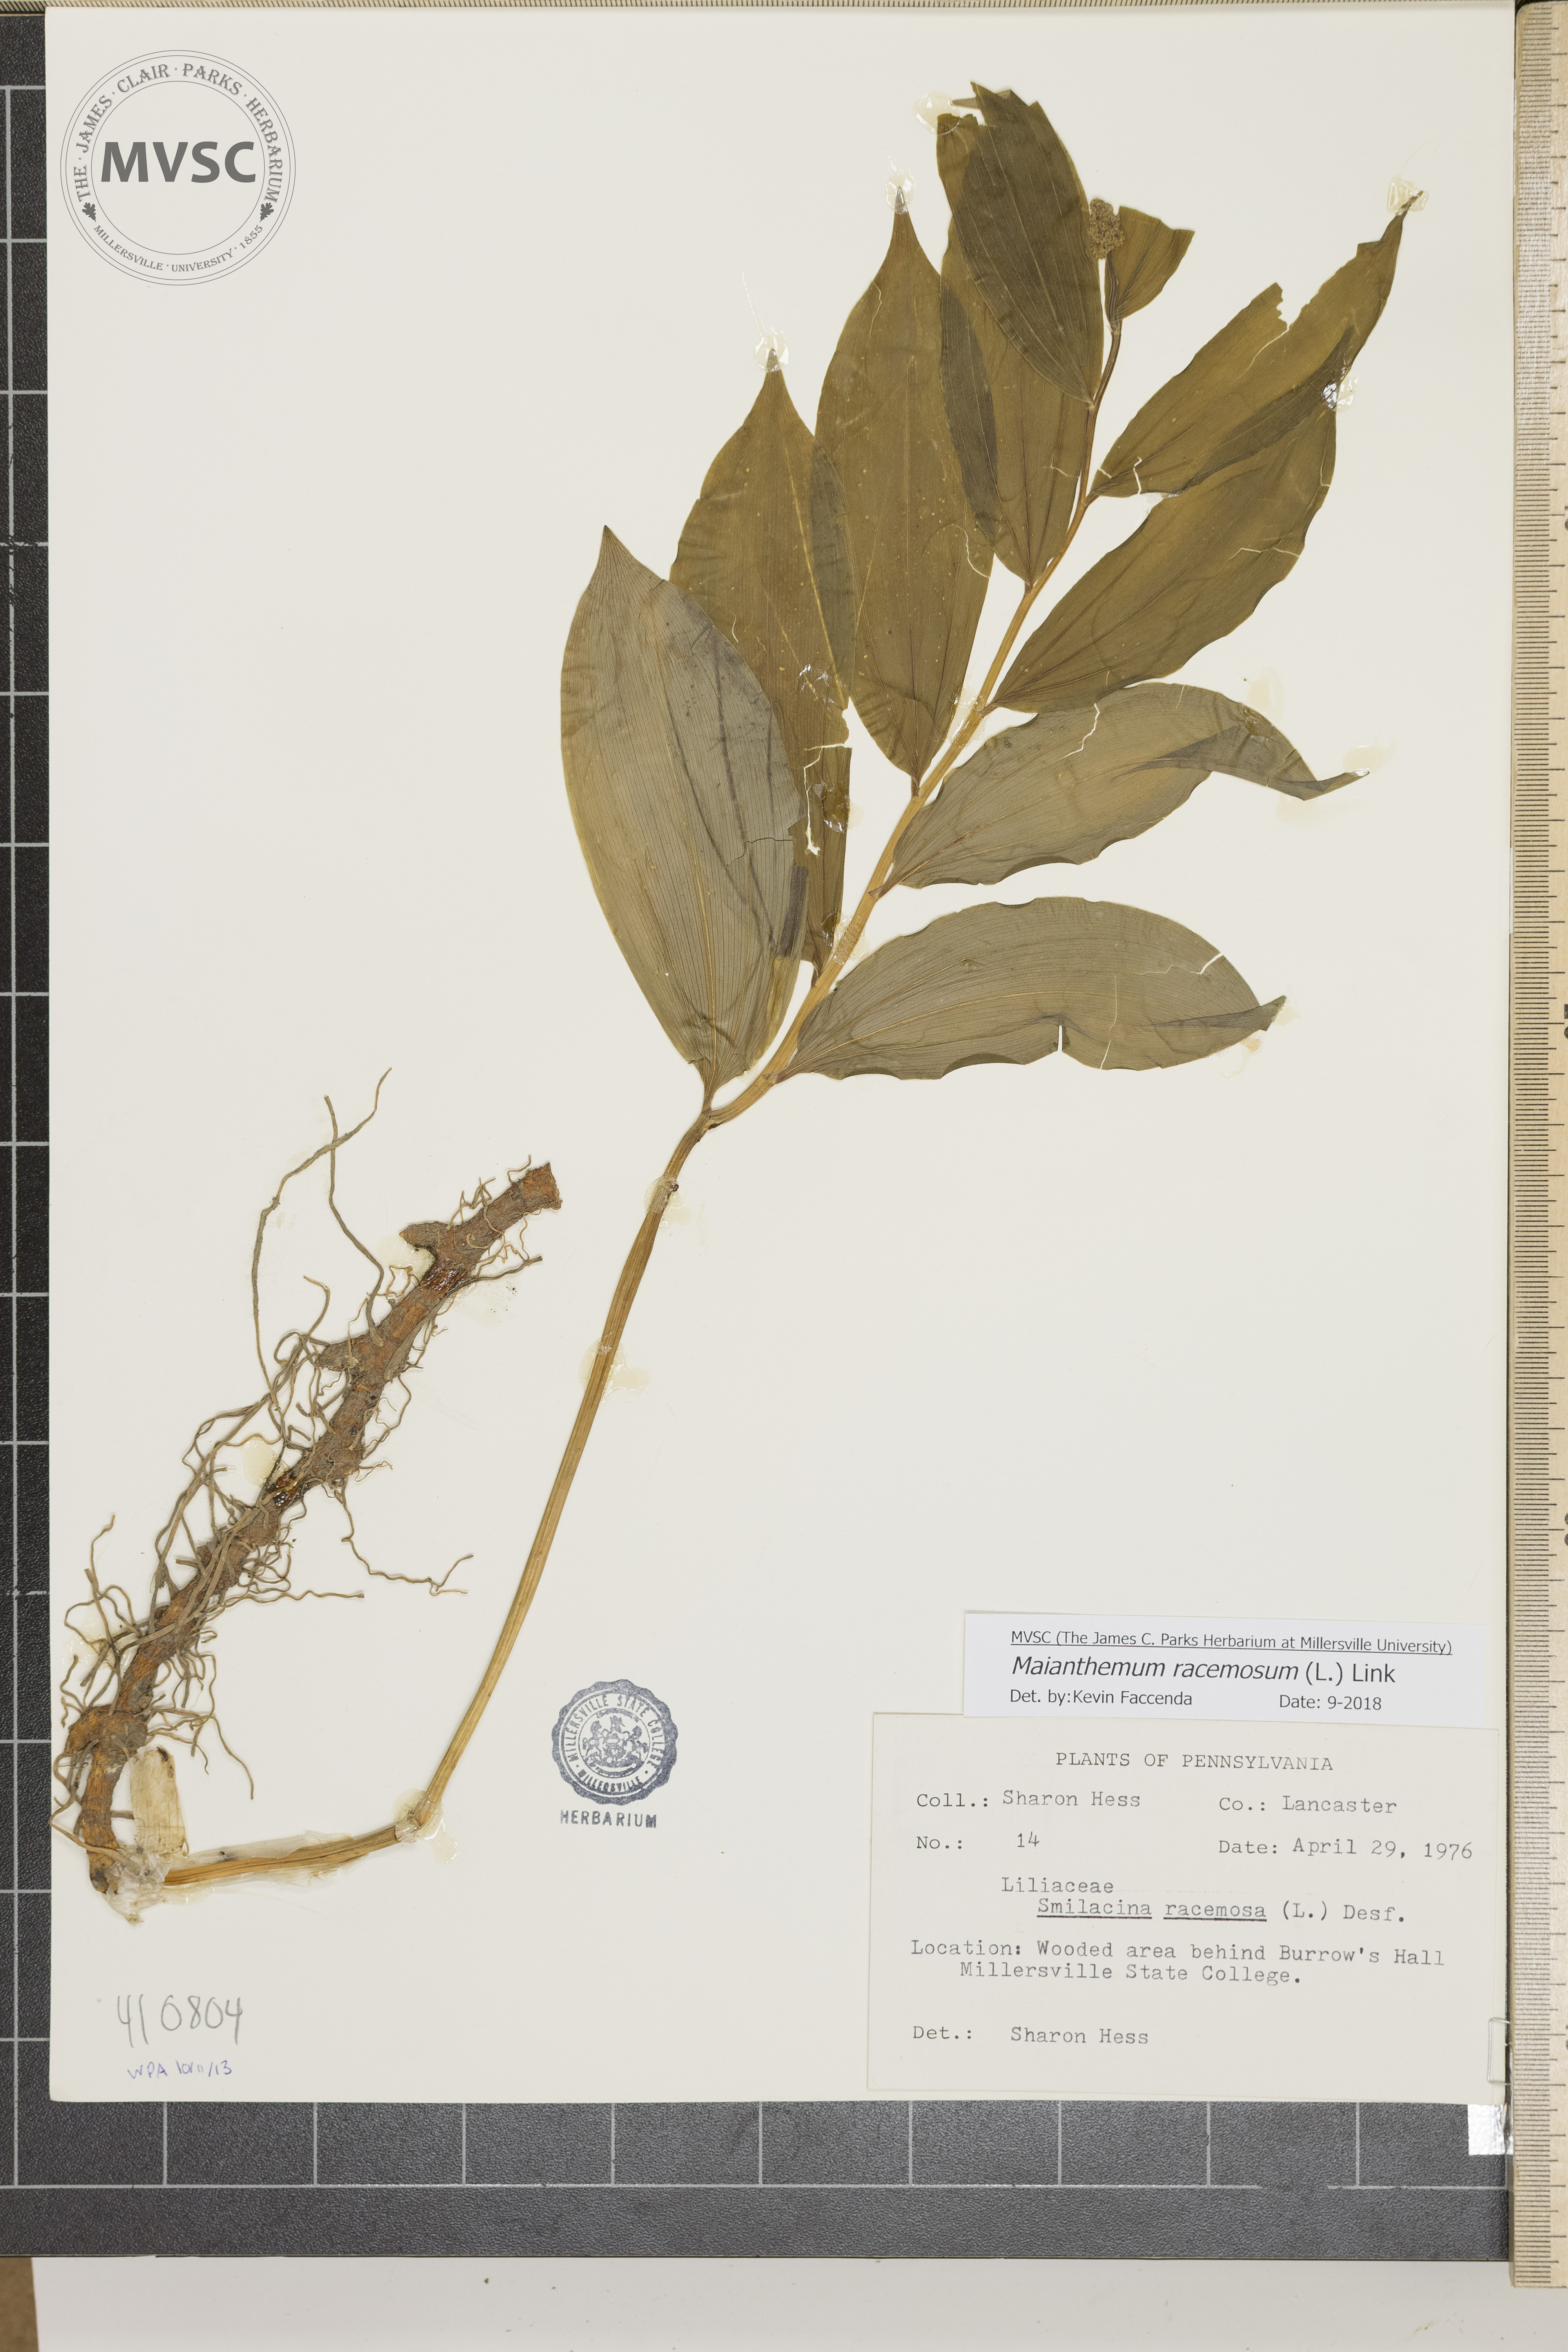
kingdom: Plantae
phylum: Tracheophyta
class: Liliopsida
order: Asparagales
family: Asparagaceae
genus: Maianthemum
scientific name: Maianthemum racemosum
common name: False spikenard
